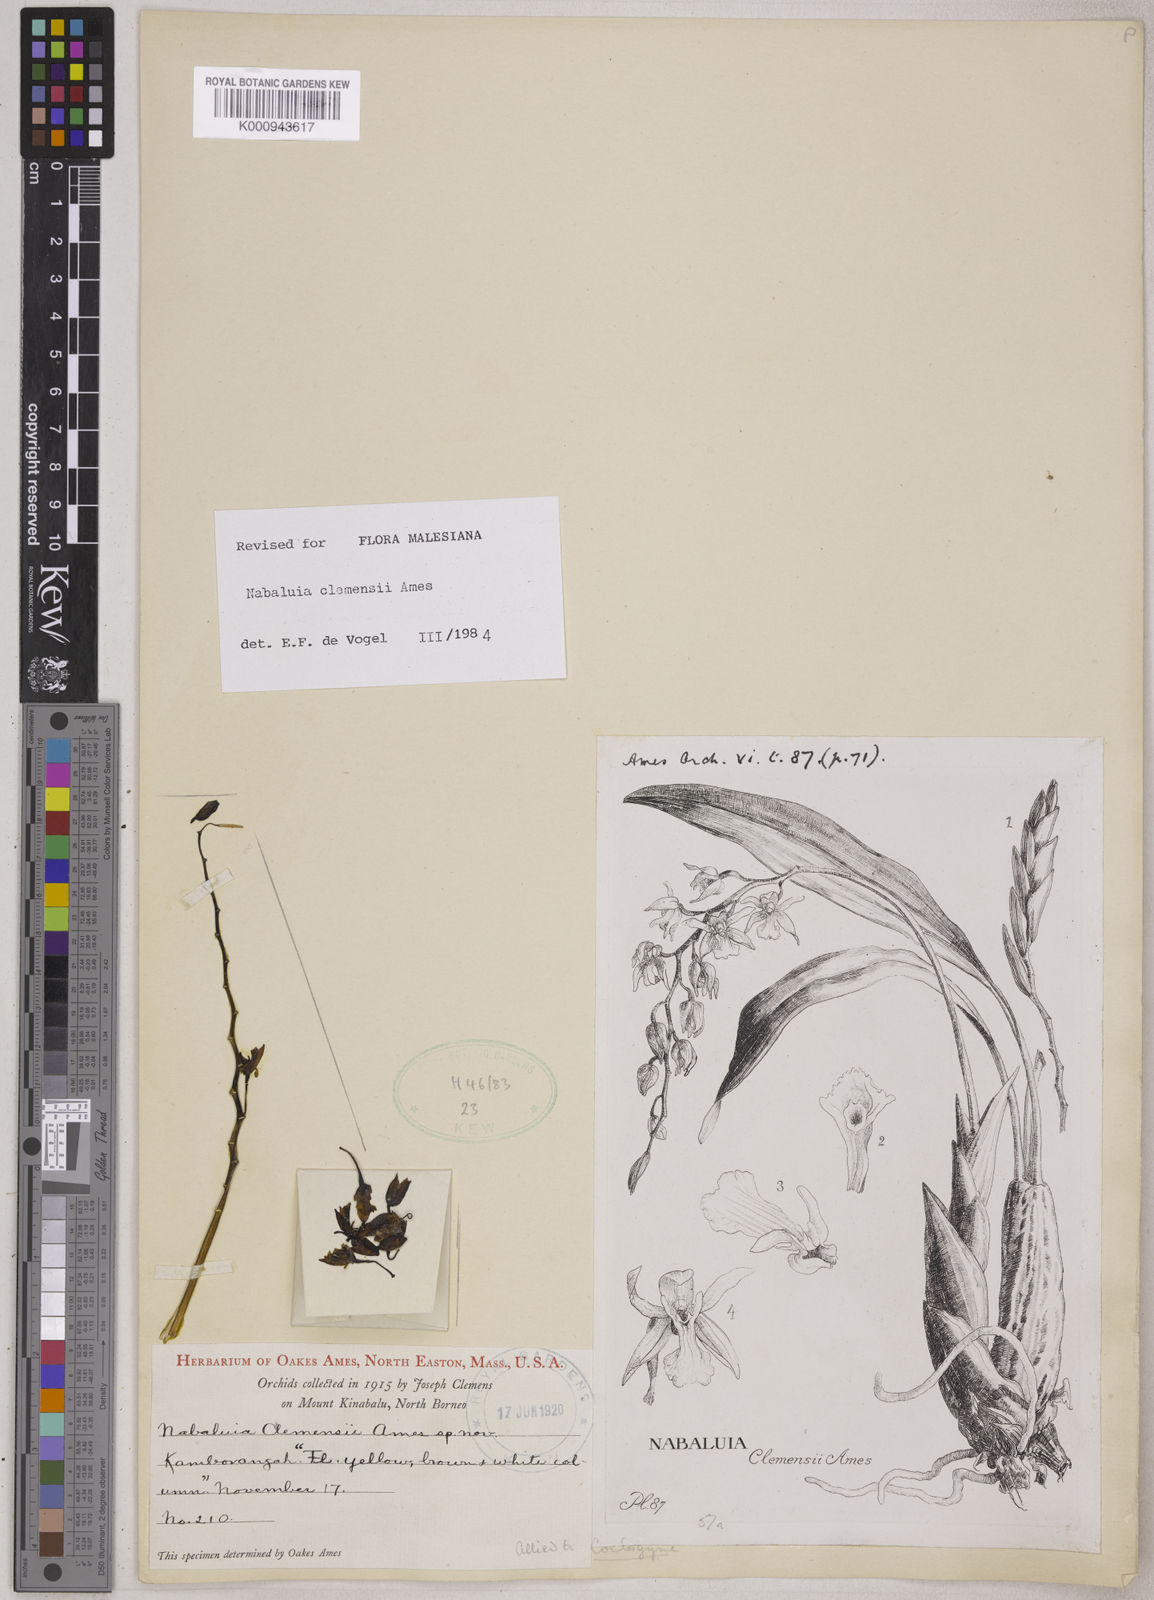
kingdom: Plantae
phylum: Tracheophyta
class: Liliopsida
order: Asparagales
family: Orchidaceae
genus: Coelogyne
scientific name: Coelogyne keithiana
